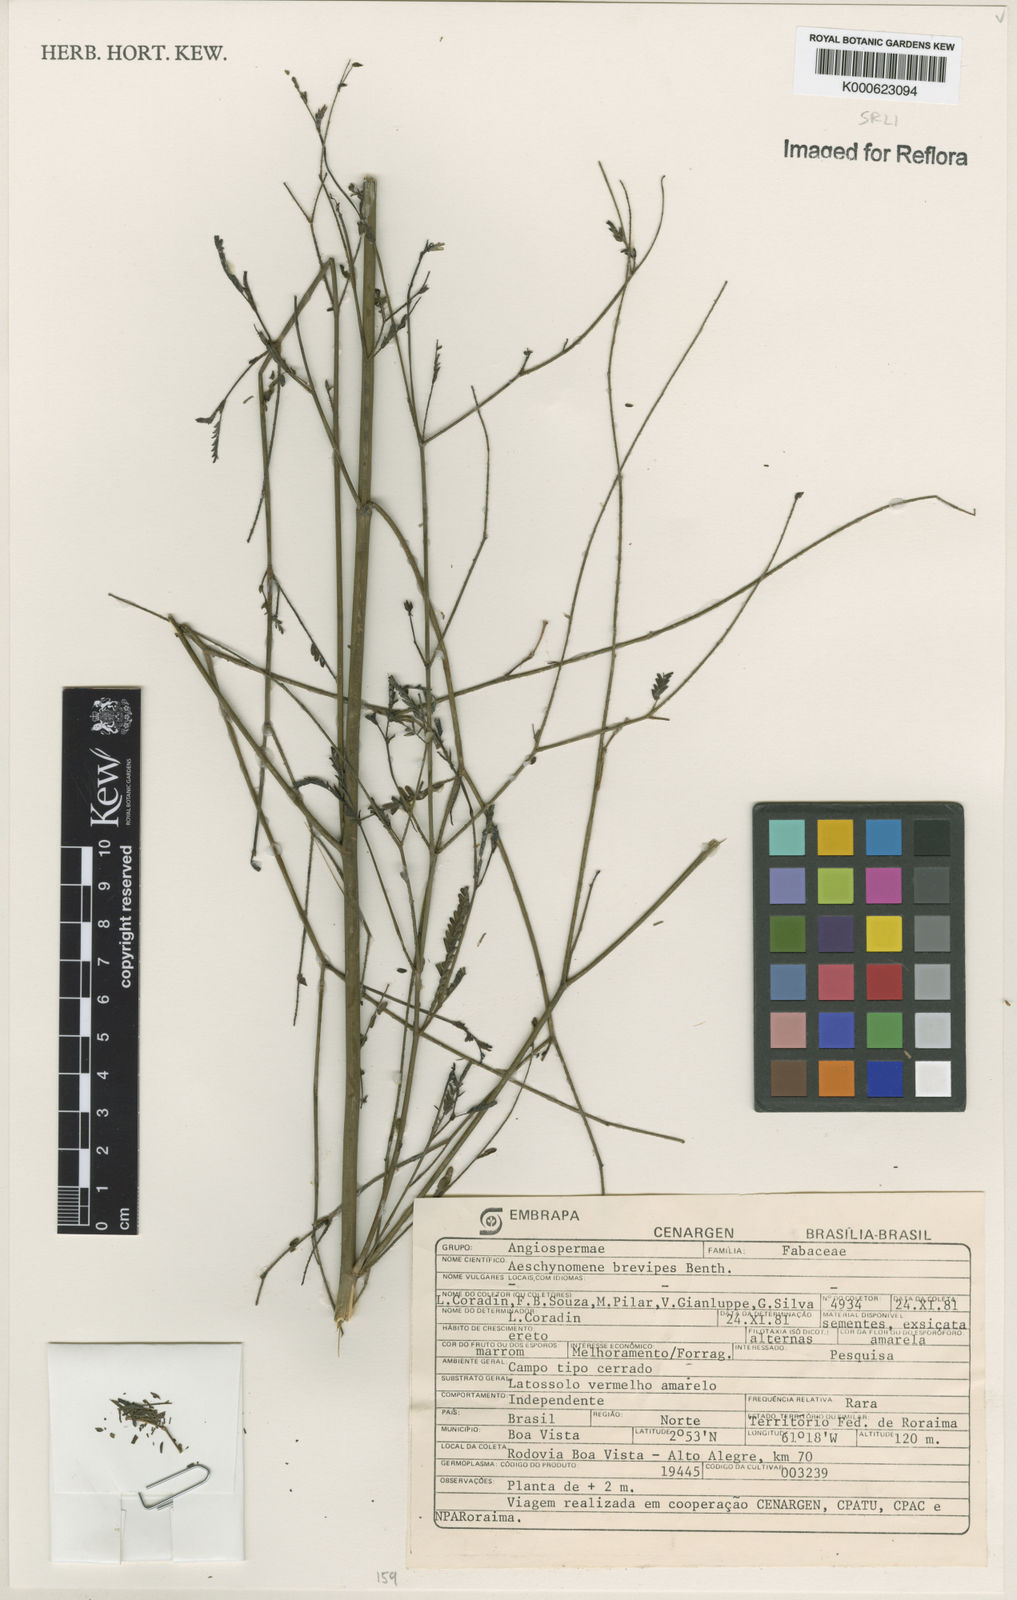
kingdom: Plantae
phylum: Tracheophyta
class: Magnoliopsida
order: Fabales
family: Fabaceae
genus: Ctenodon
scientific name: Ctenodon brevipes
